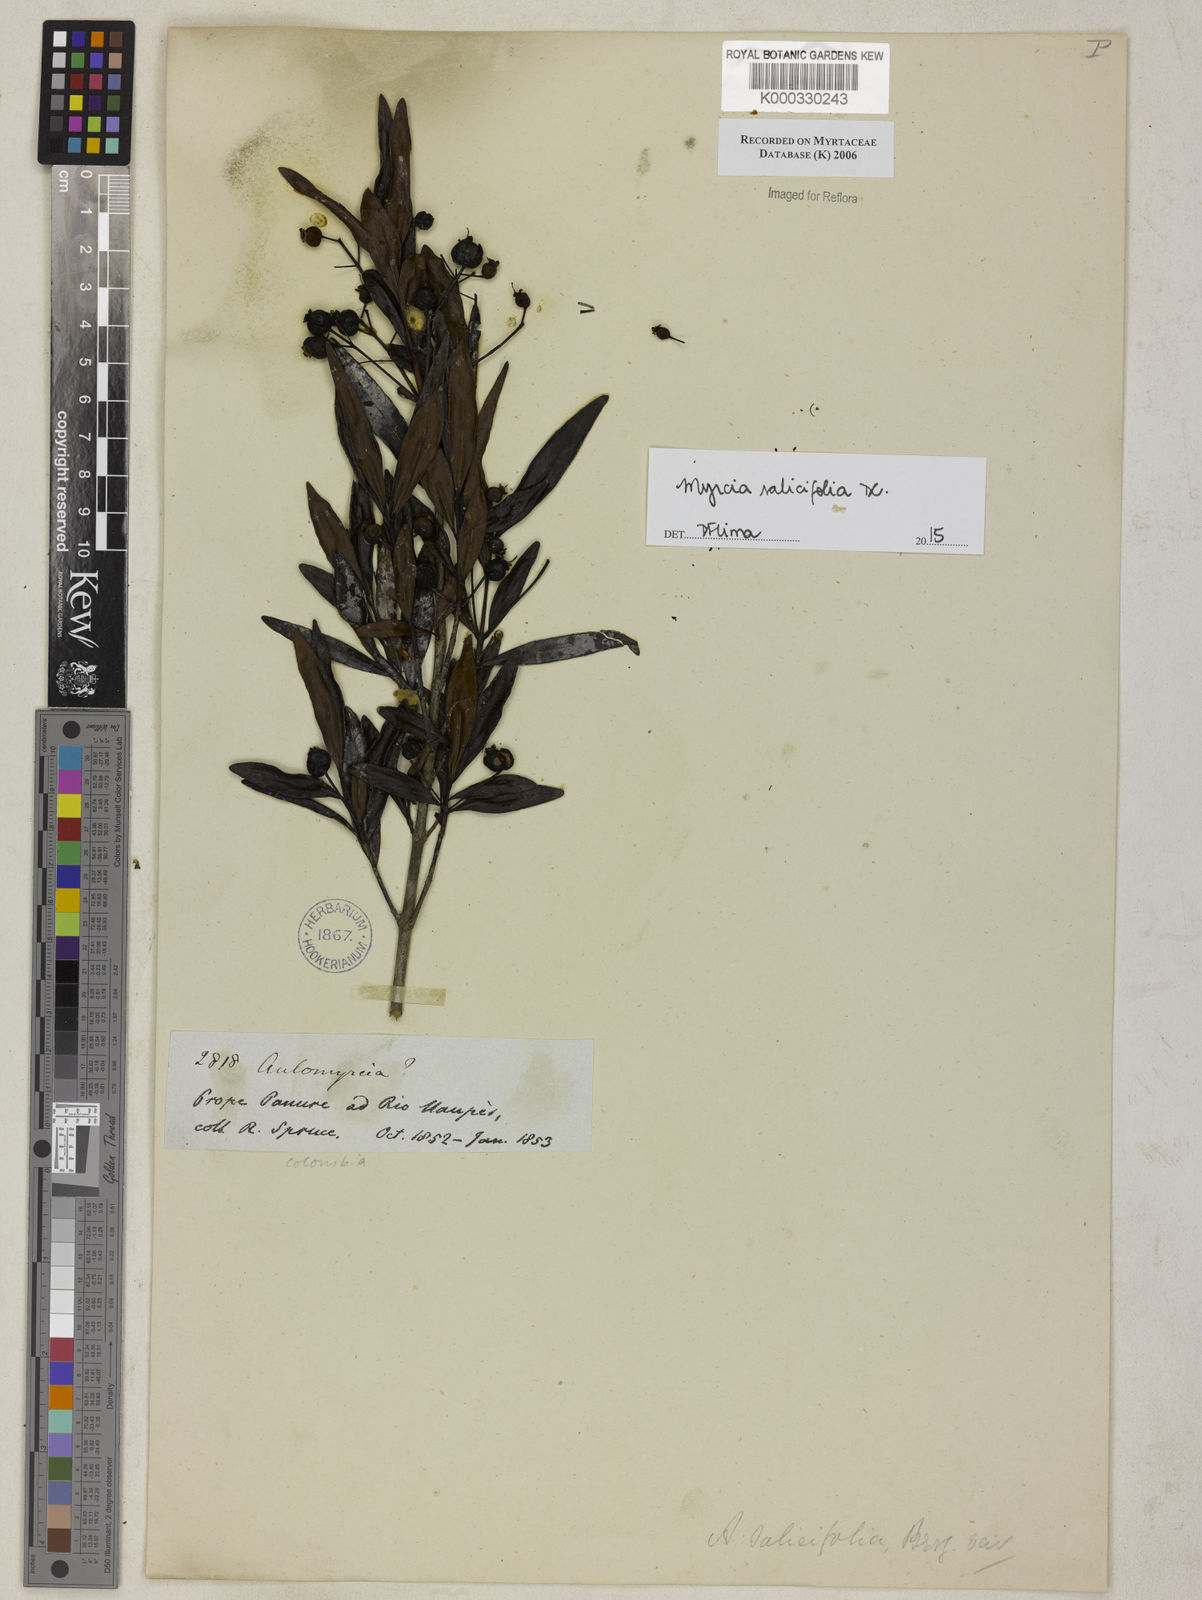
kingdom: Plantae
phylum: Tracheophyta
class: Magnoliopsida
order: Myrtales
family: Myrtaceae
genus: Myrcia
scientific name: Myrcia salicifolia
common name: Insulin plant
